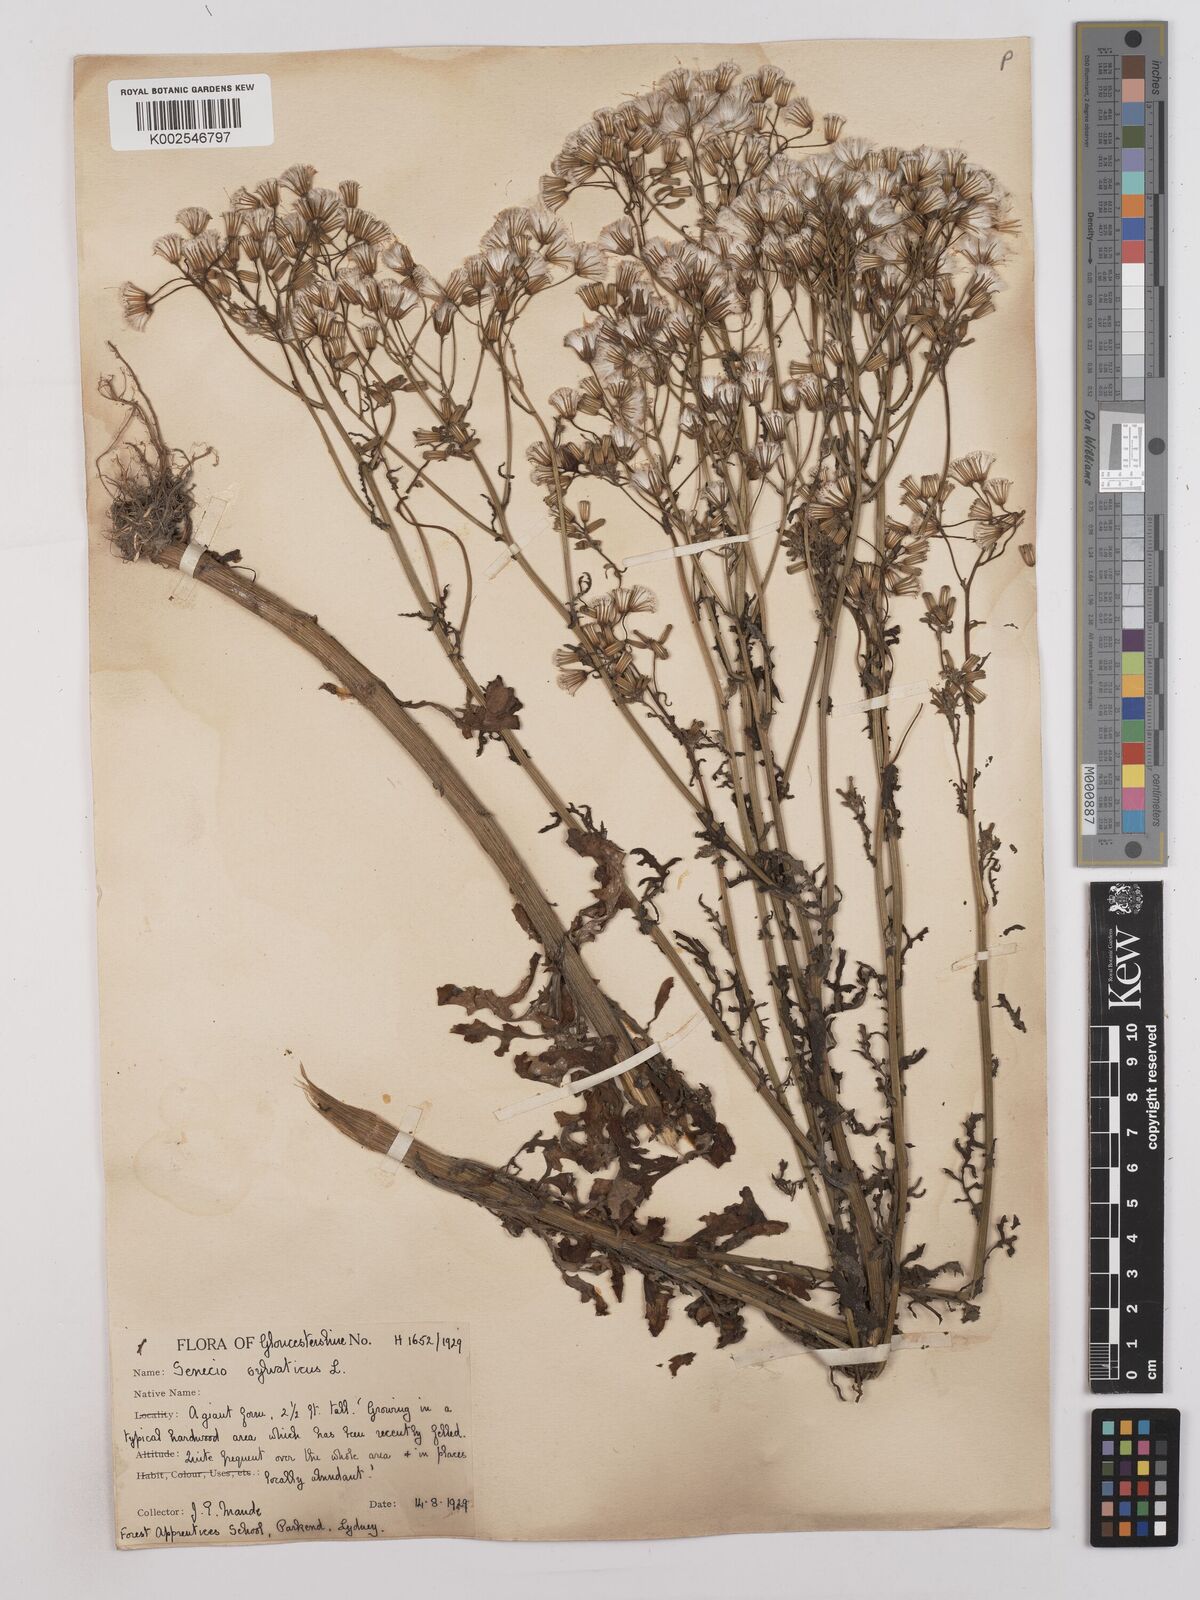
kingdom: Plantae
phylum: Tracheophyta
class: Magnoliopsida
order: Asterales
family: Asteraceae
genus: Senecio
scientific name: Senecio sylvaticus
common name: Woodland ragwort
